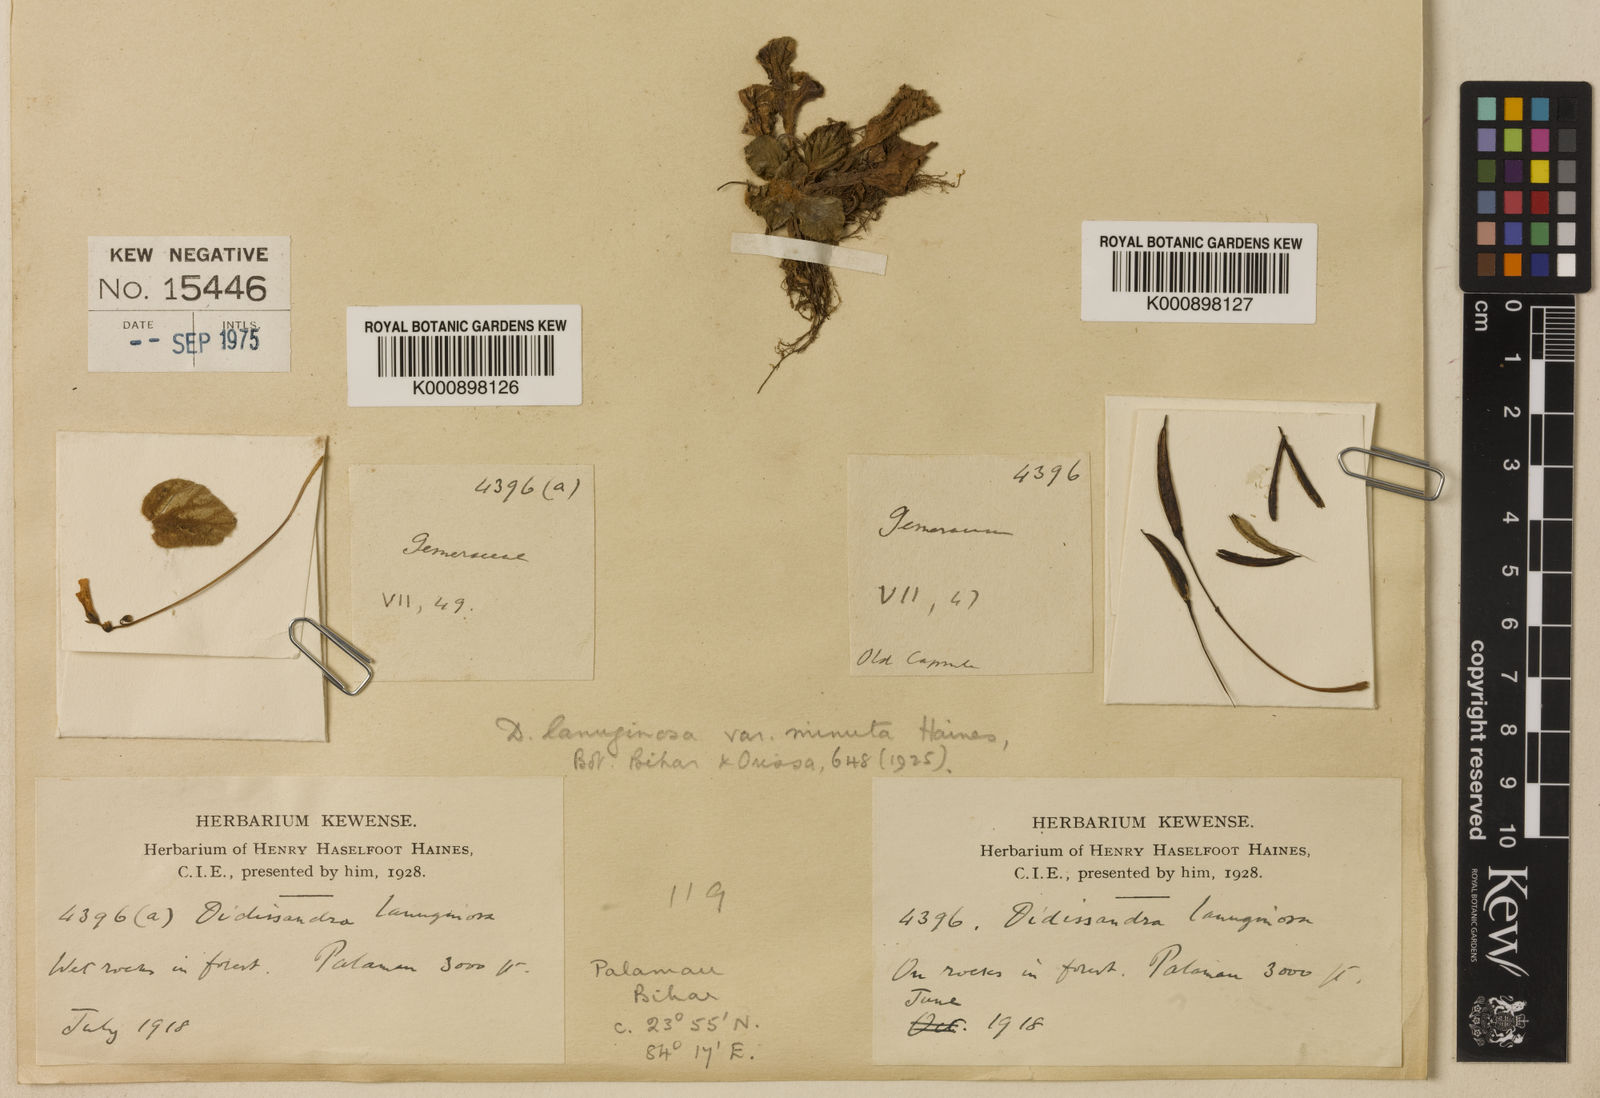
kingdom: Plantae
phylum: Tracheophyta
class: Magnoliopsida
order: Lamiales
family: Gesneriaceae
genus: Corallodiscus
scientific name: Corallodiscus lanuginosus
